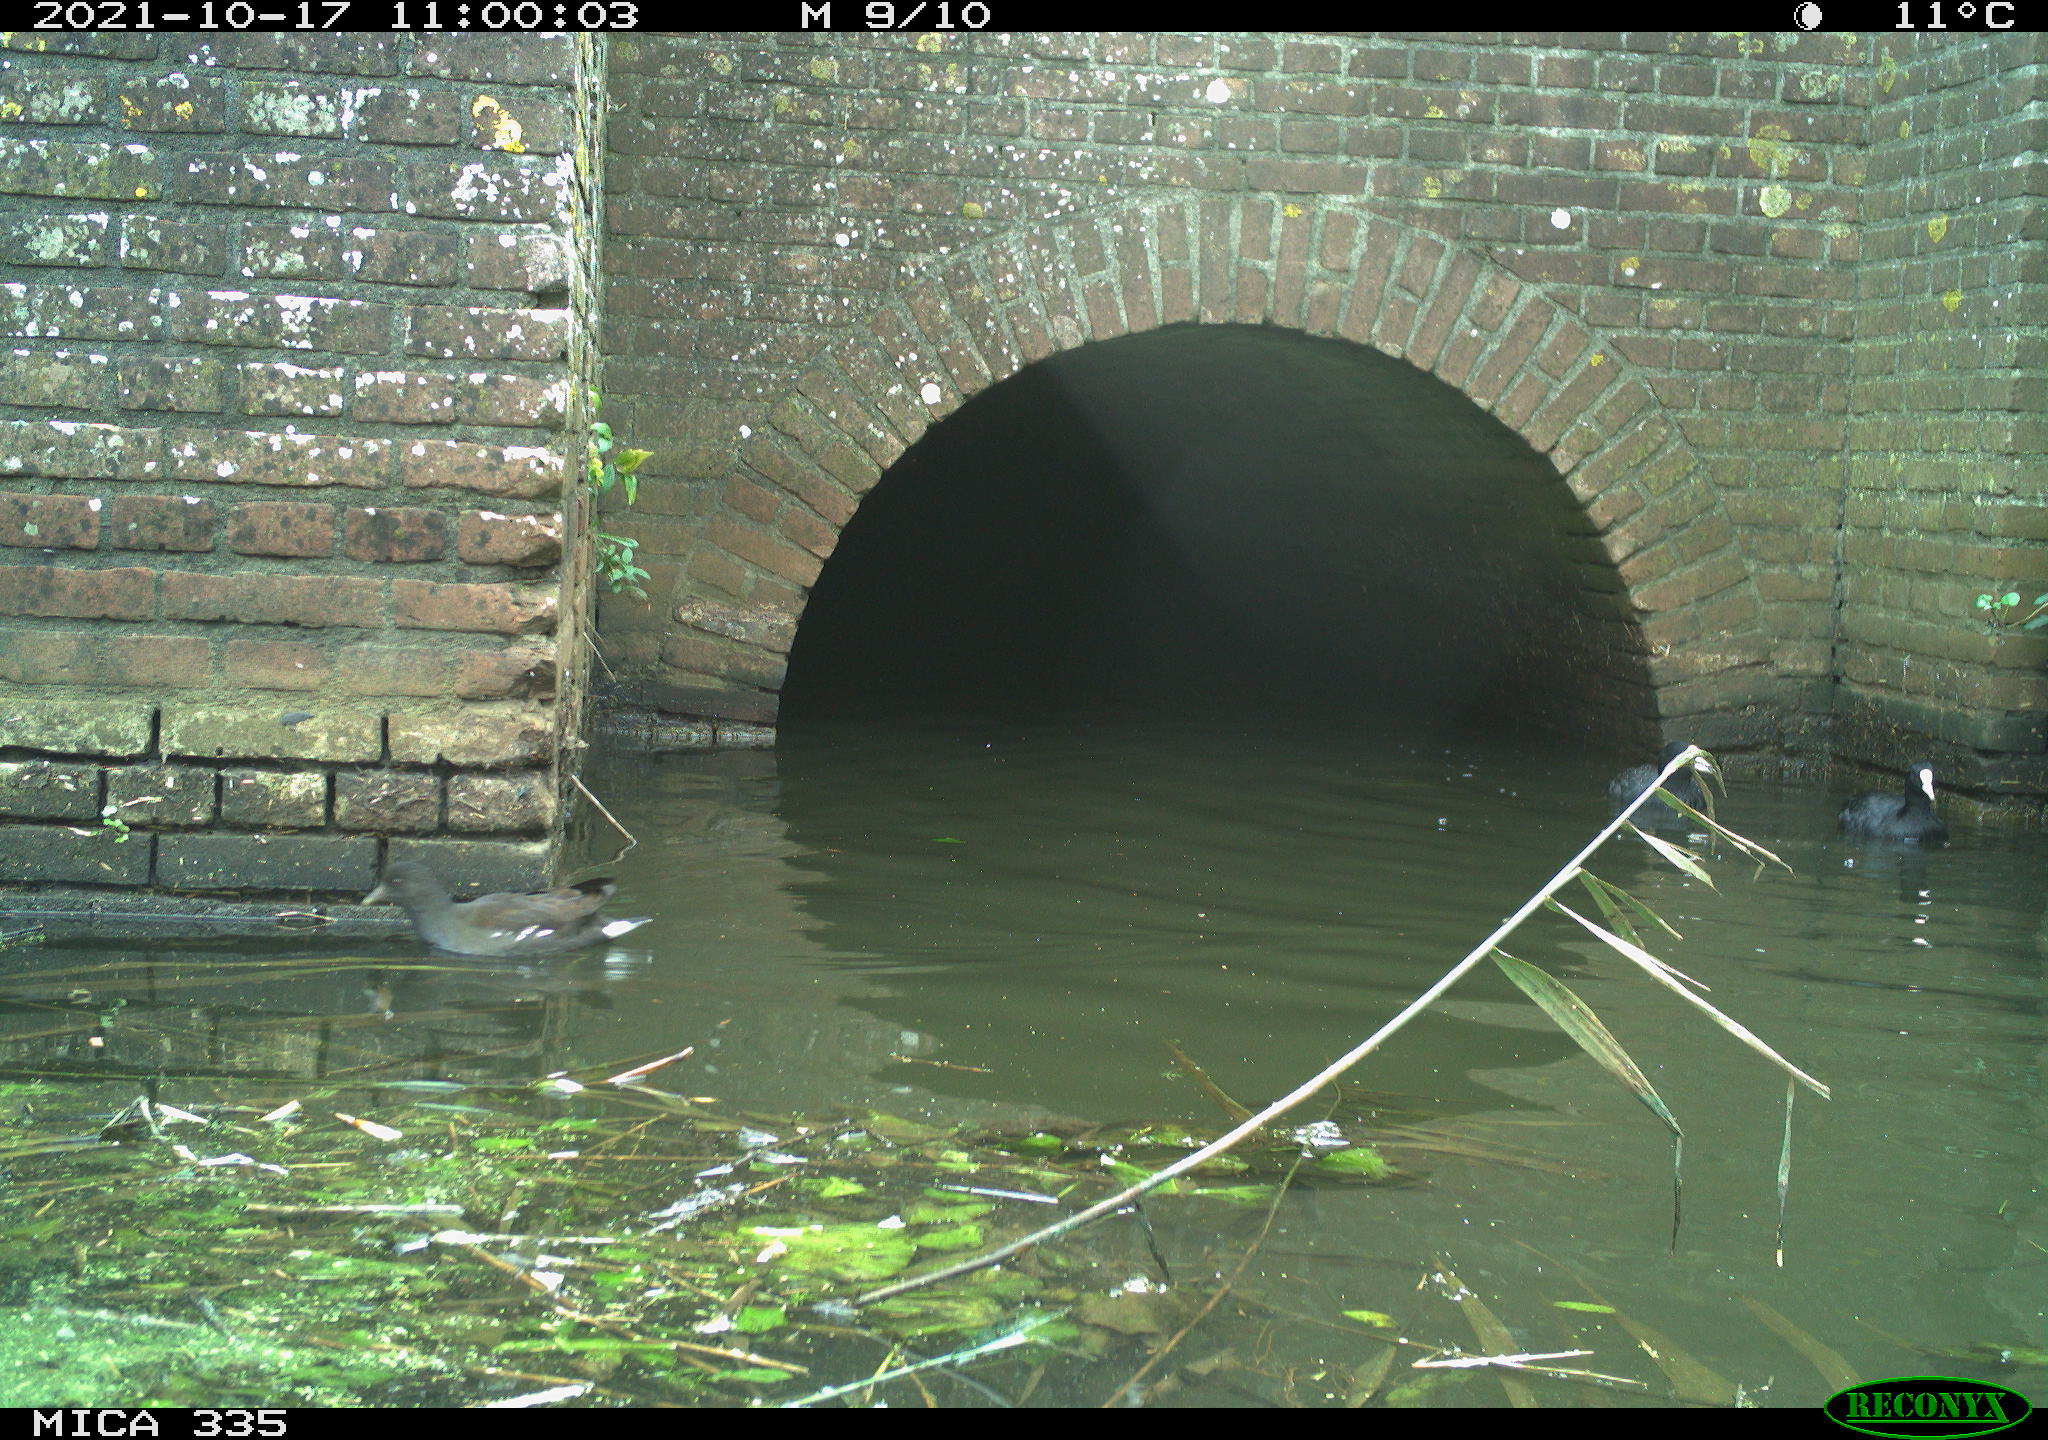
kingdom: Animalia
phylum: Chordata
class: Aves
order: Gruiformes
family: Rallidae
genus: Gallinula
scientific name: Gallinula chloropus
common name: Common moorhen
